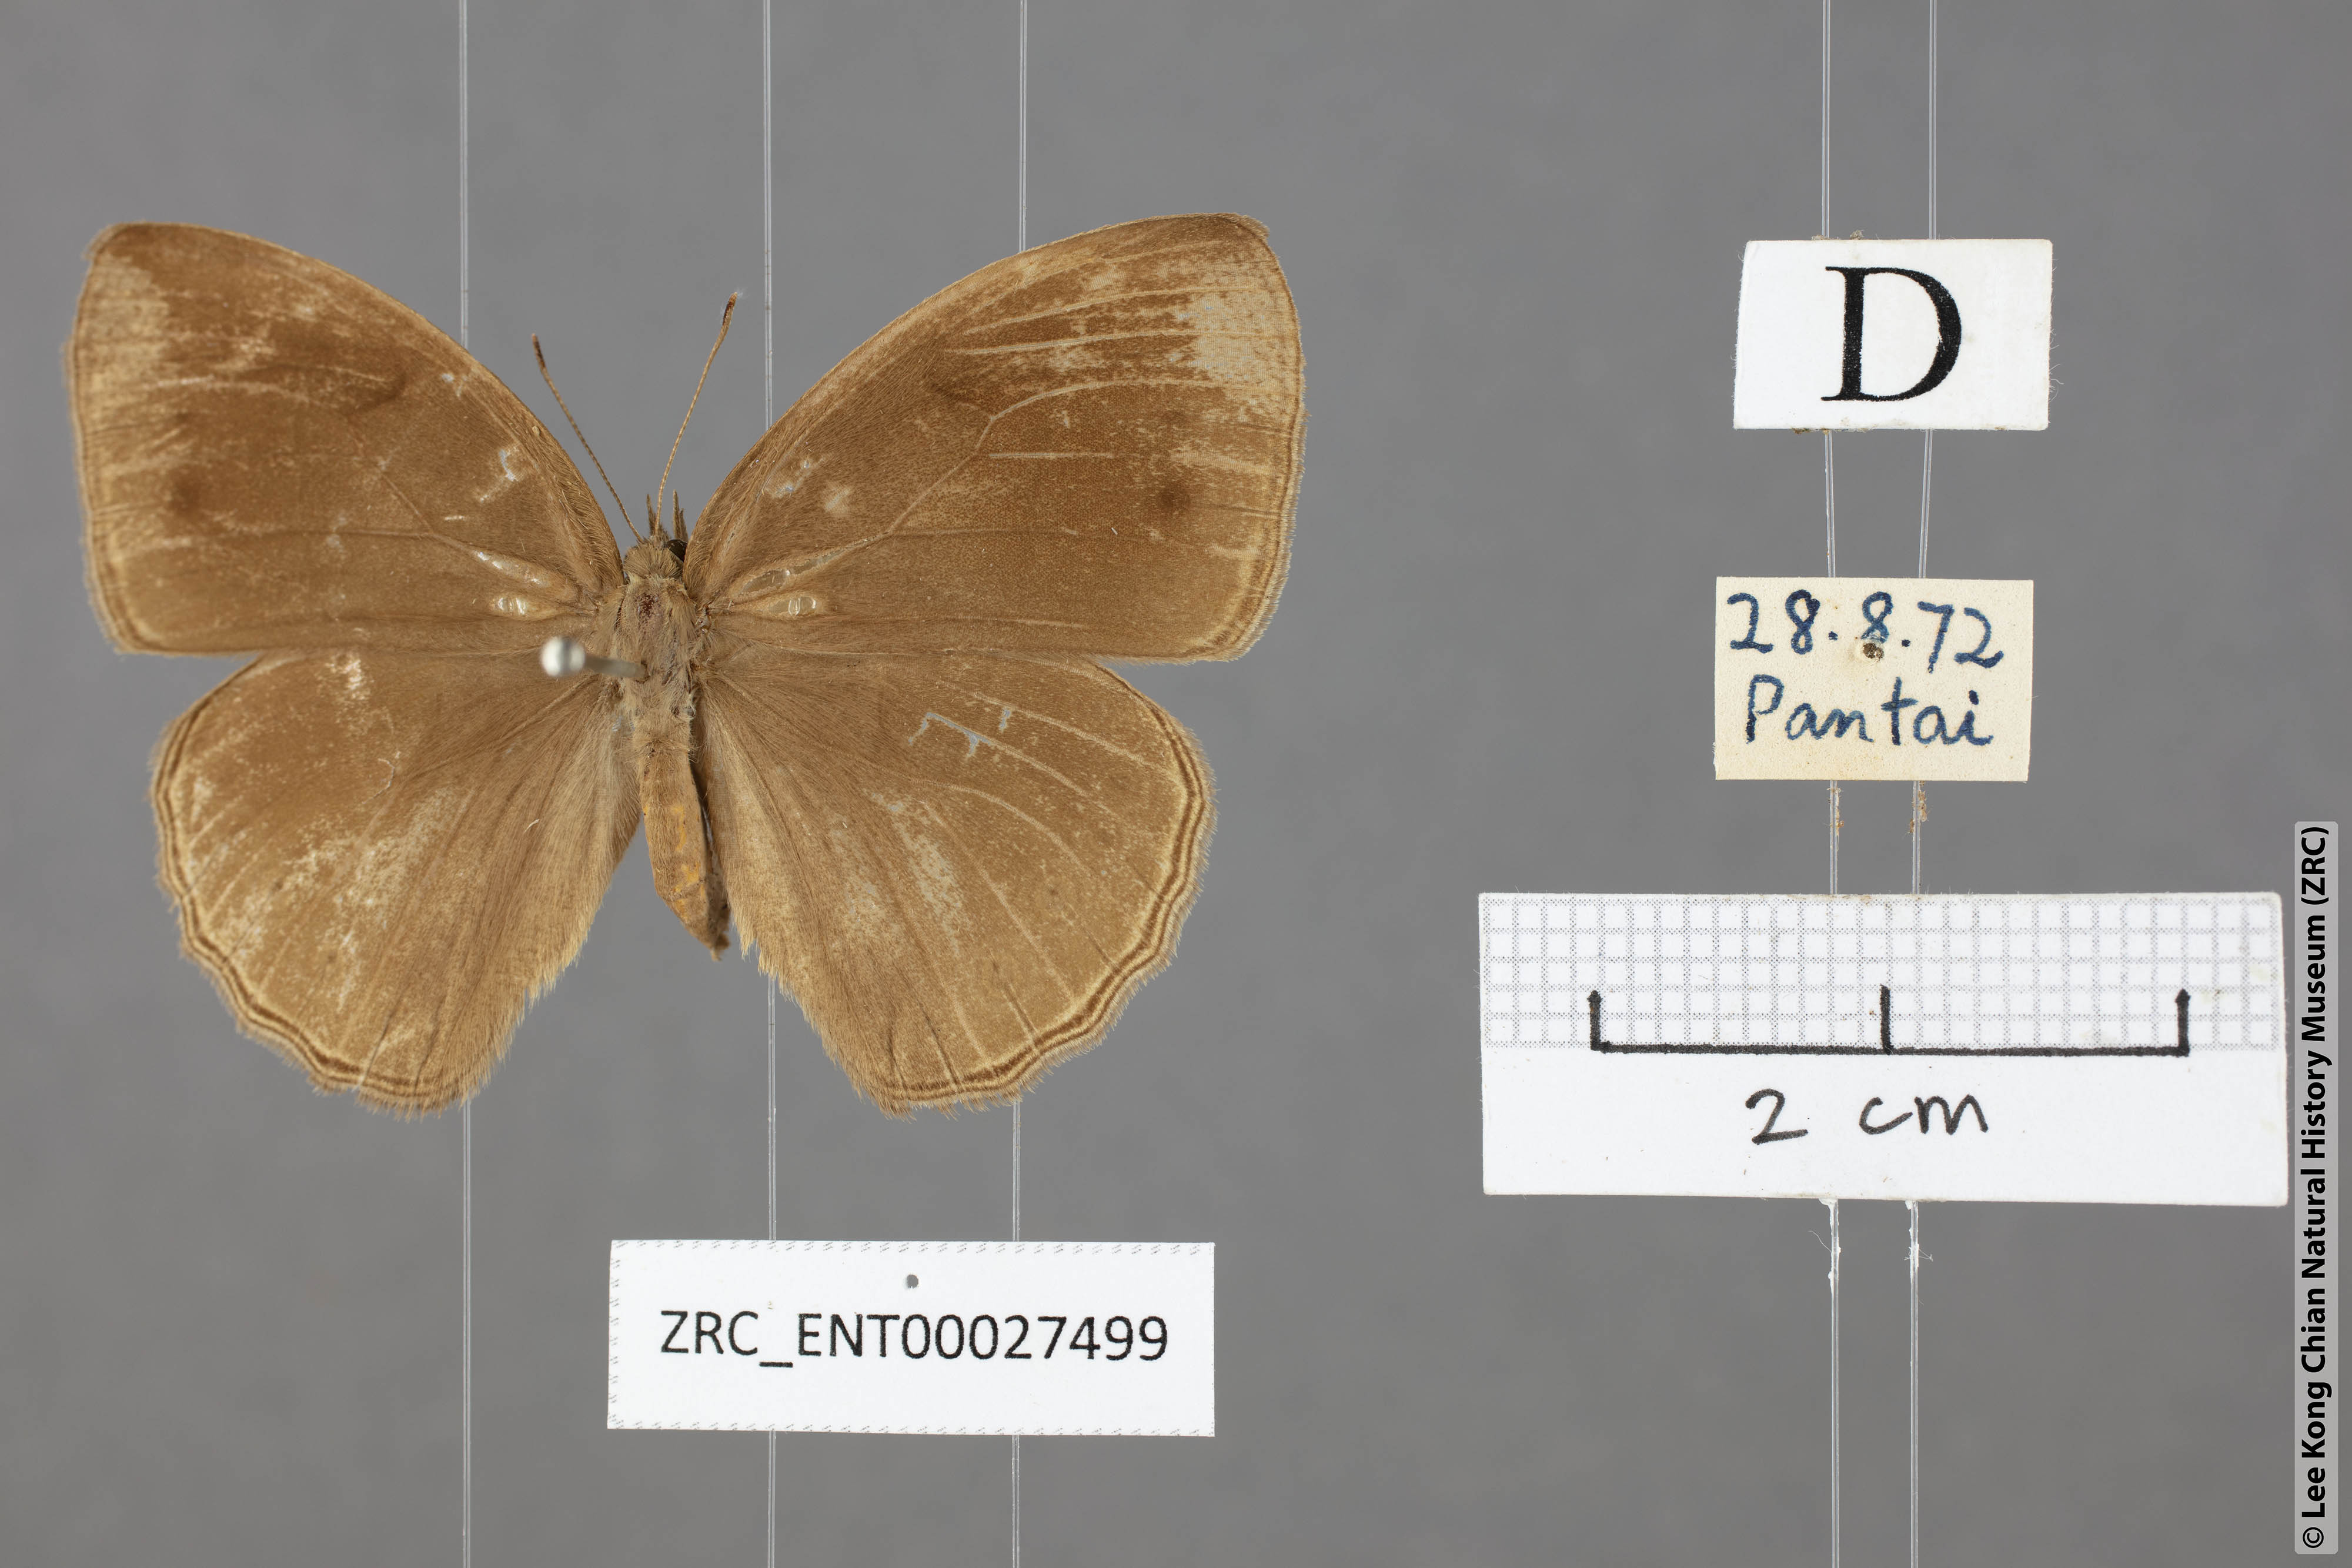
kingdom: Animalia
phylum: Arthropoda
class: Insecta
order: Lepidoptera
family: Nymphalidae
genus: Mycalesis
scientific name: Mycalesis janardana
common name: Common bush brown
